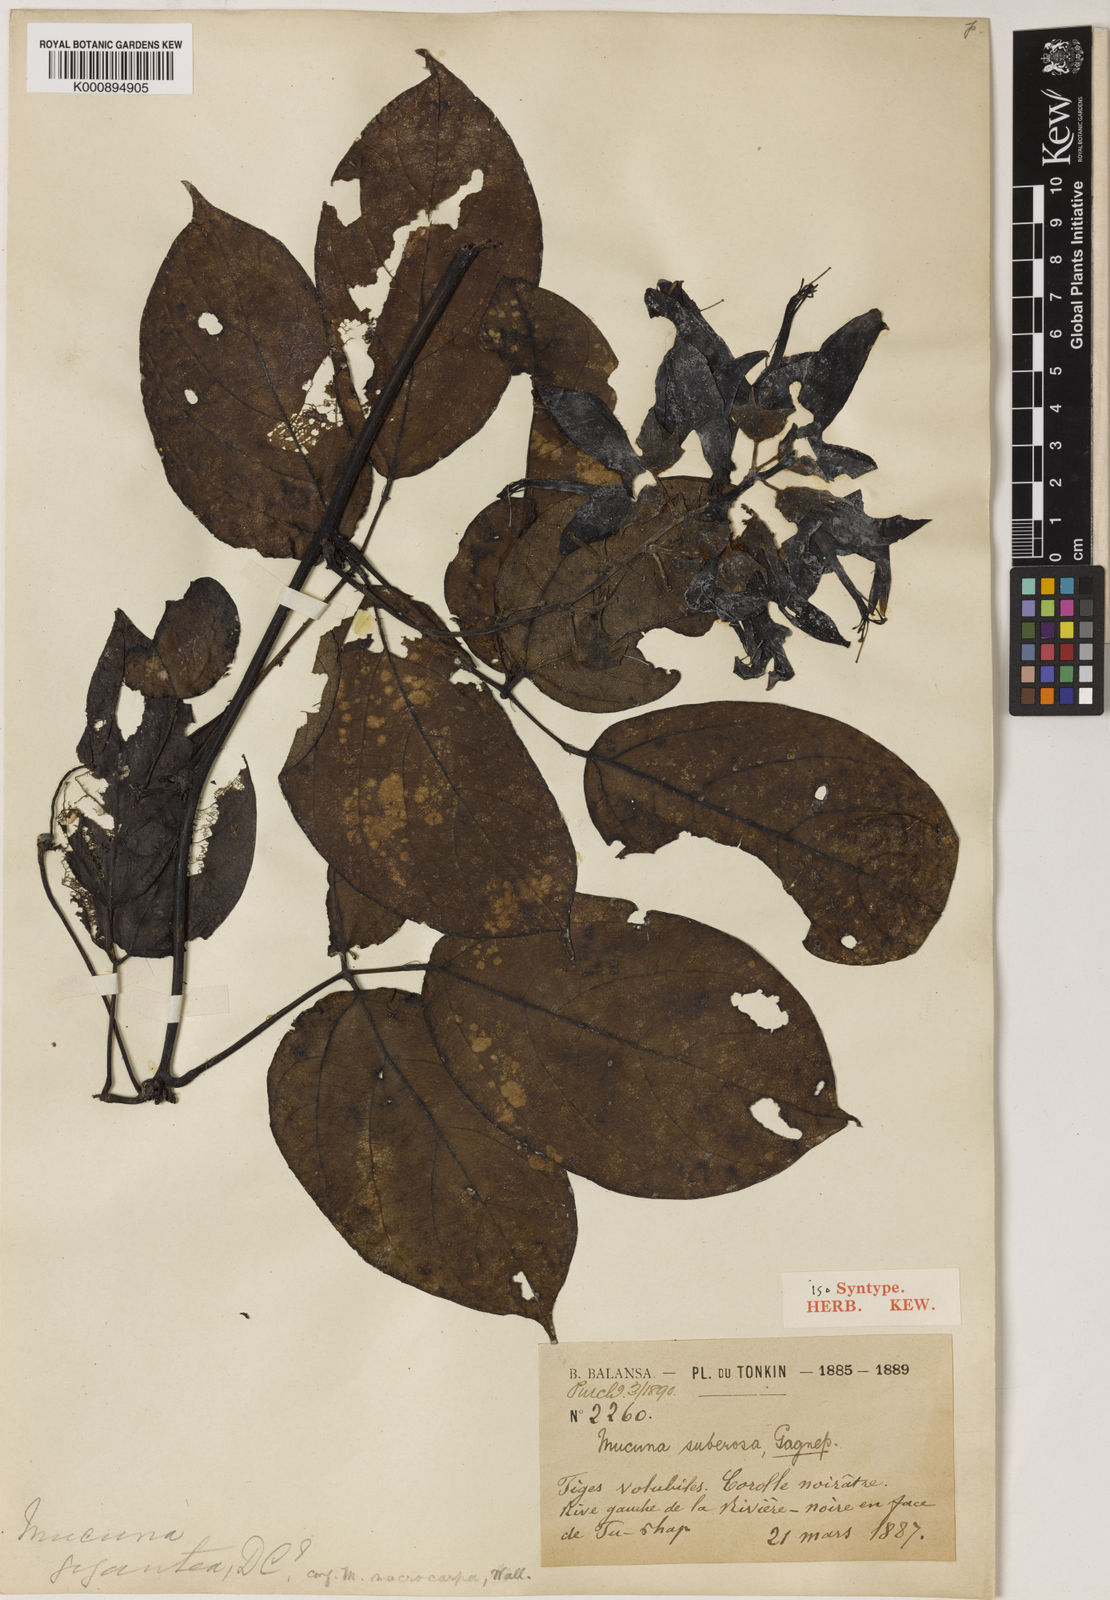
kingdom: Plantae
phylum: Tracheophyta
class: Magnoliopsida
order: Fabales
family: Fabaceae
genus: Mucuna
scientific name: Mucuna hainanensis
